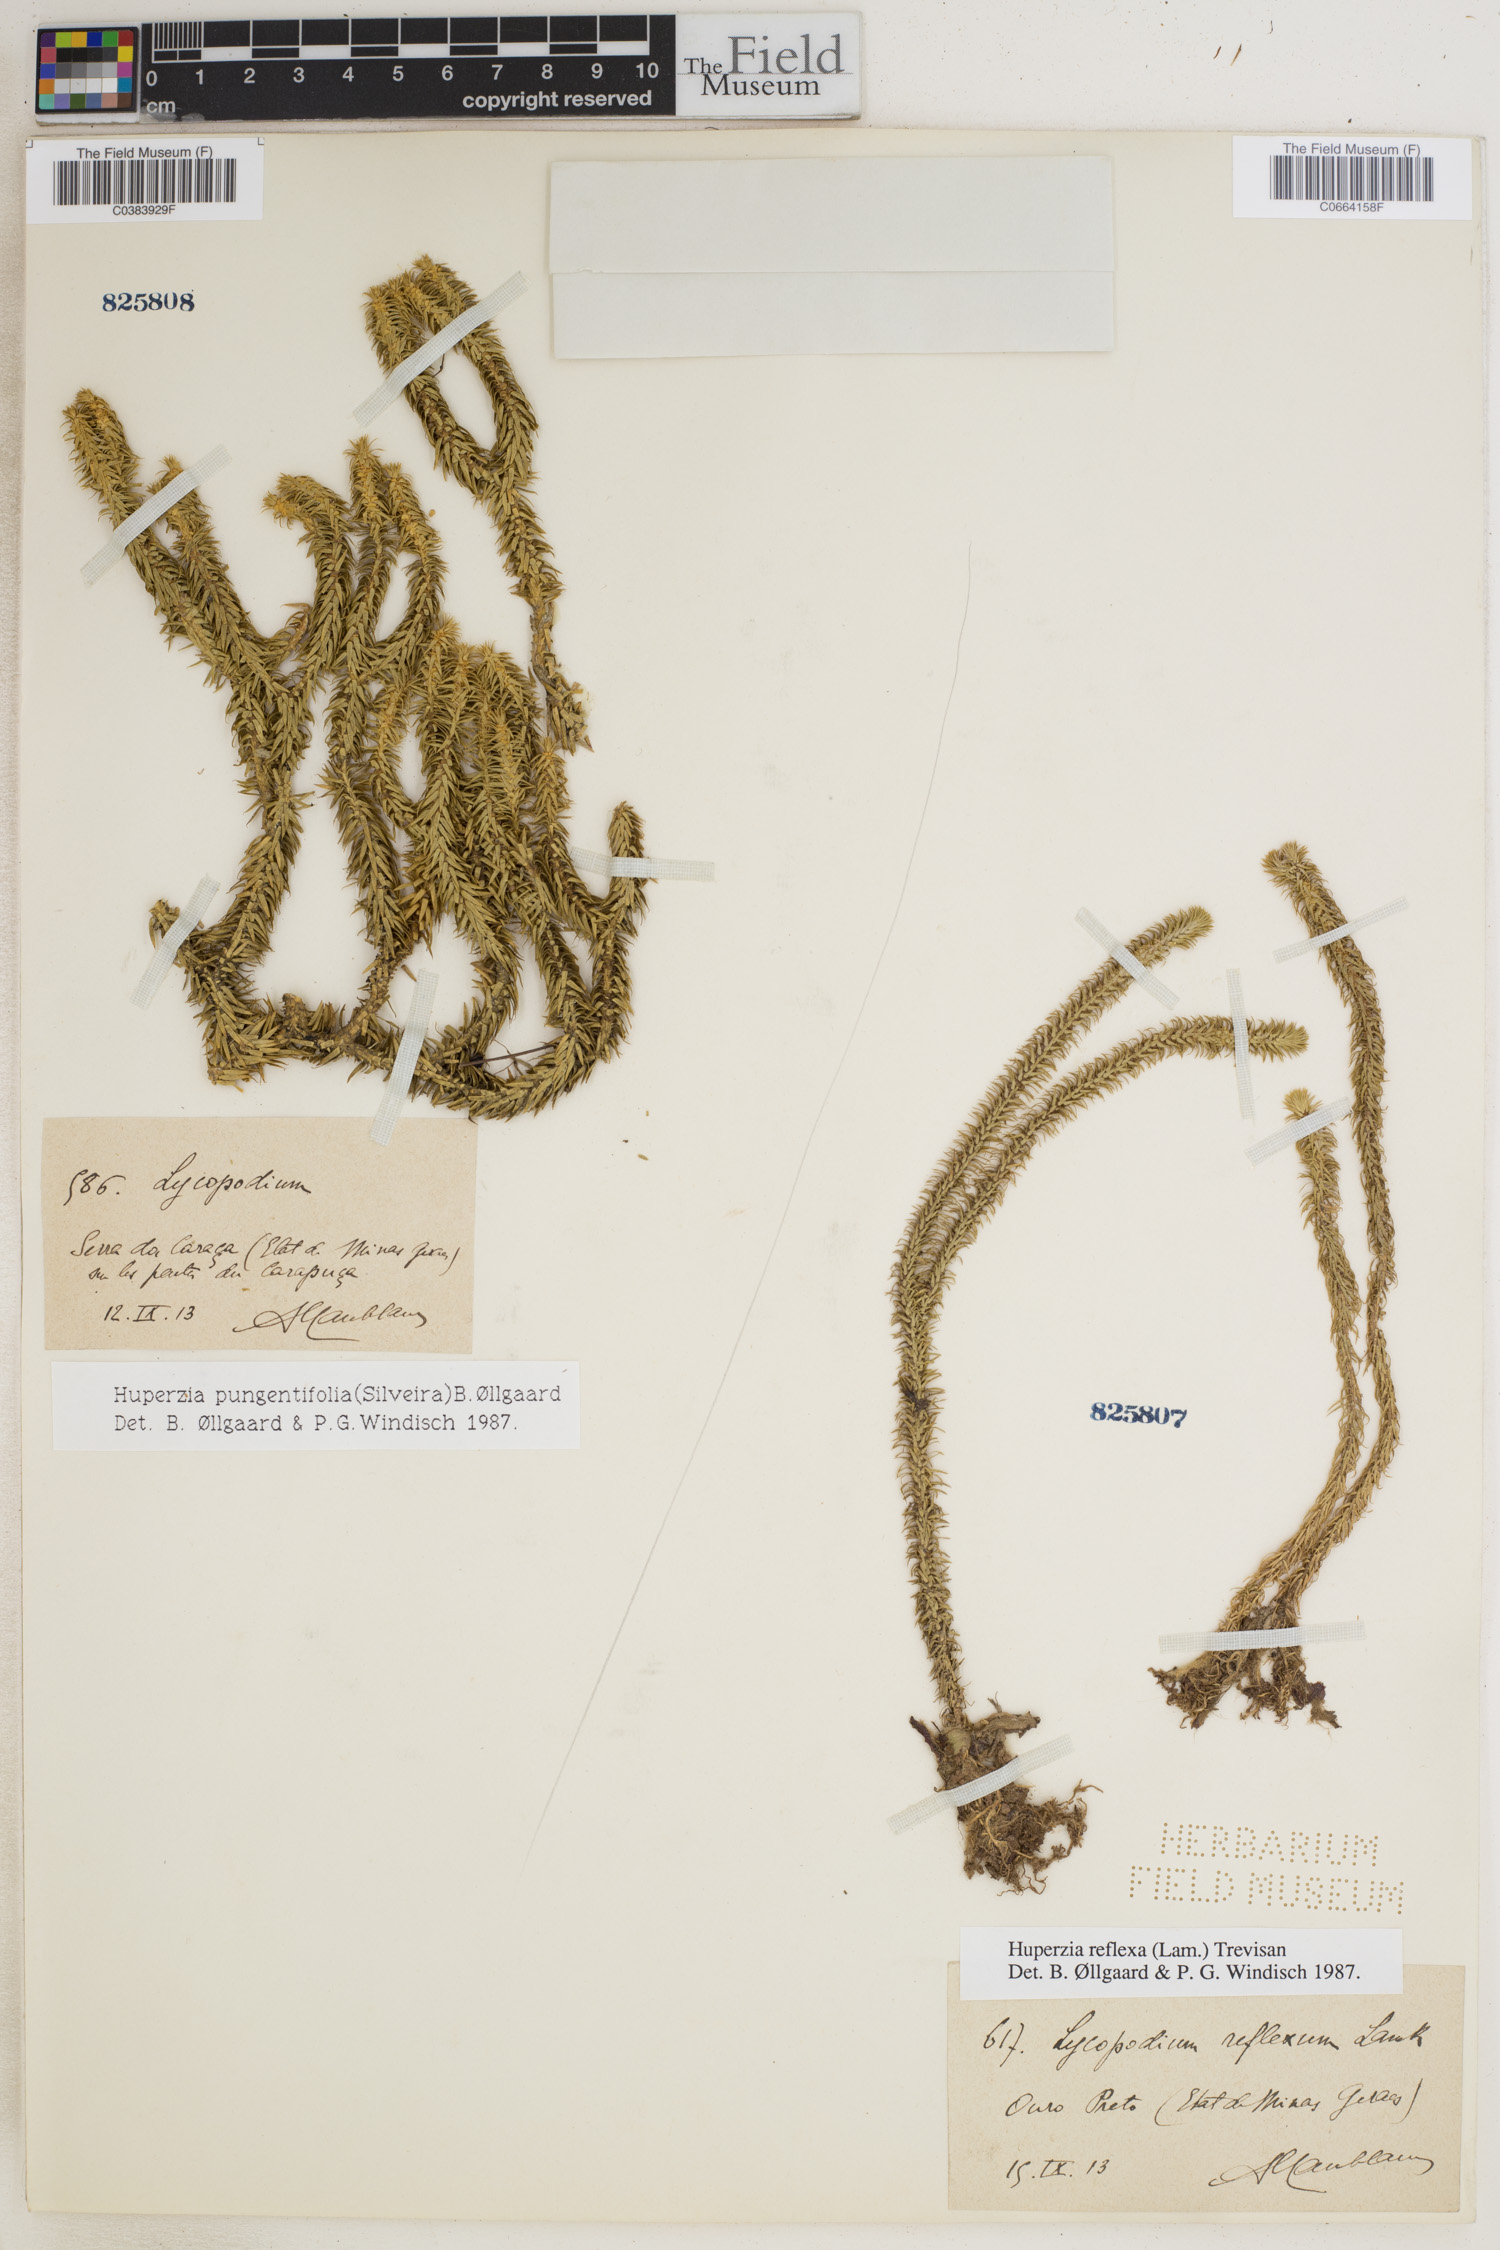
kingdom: Plantae
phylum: Tracheophyta
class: Lycopodiopsida
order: Lycopodiales
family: Lycopodiaceae
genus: Phlegmariurus
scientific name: Phlegmariurus pungentifolius
